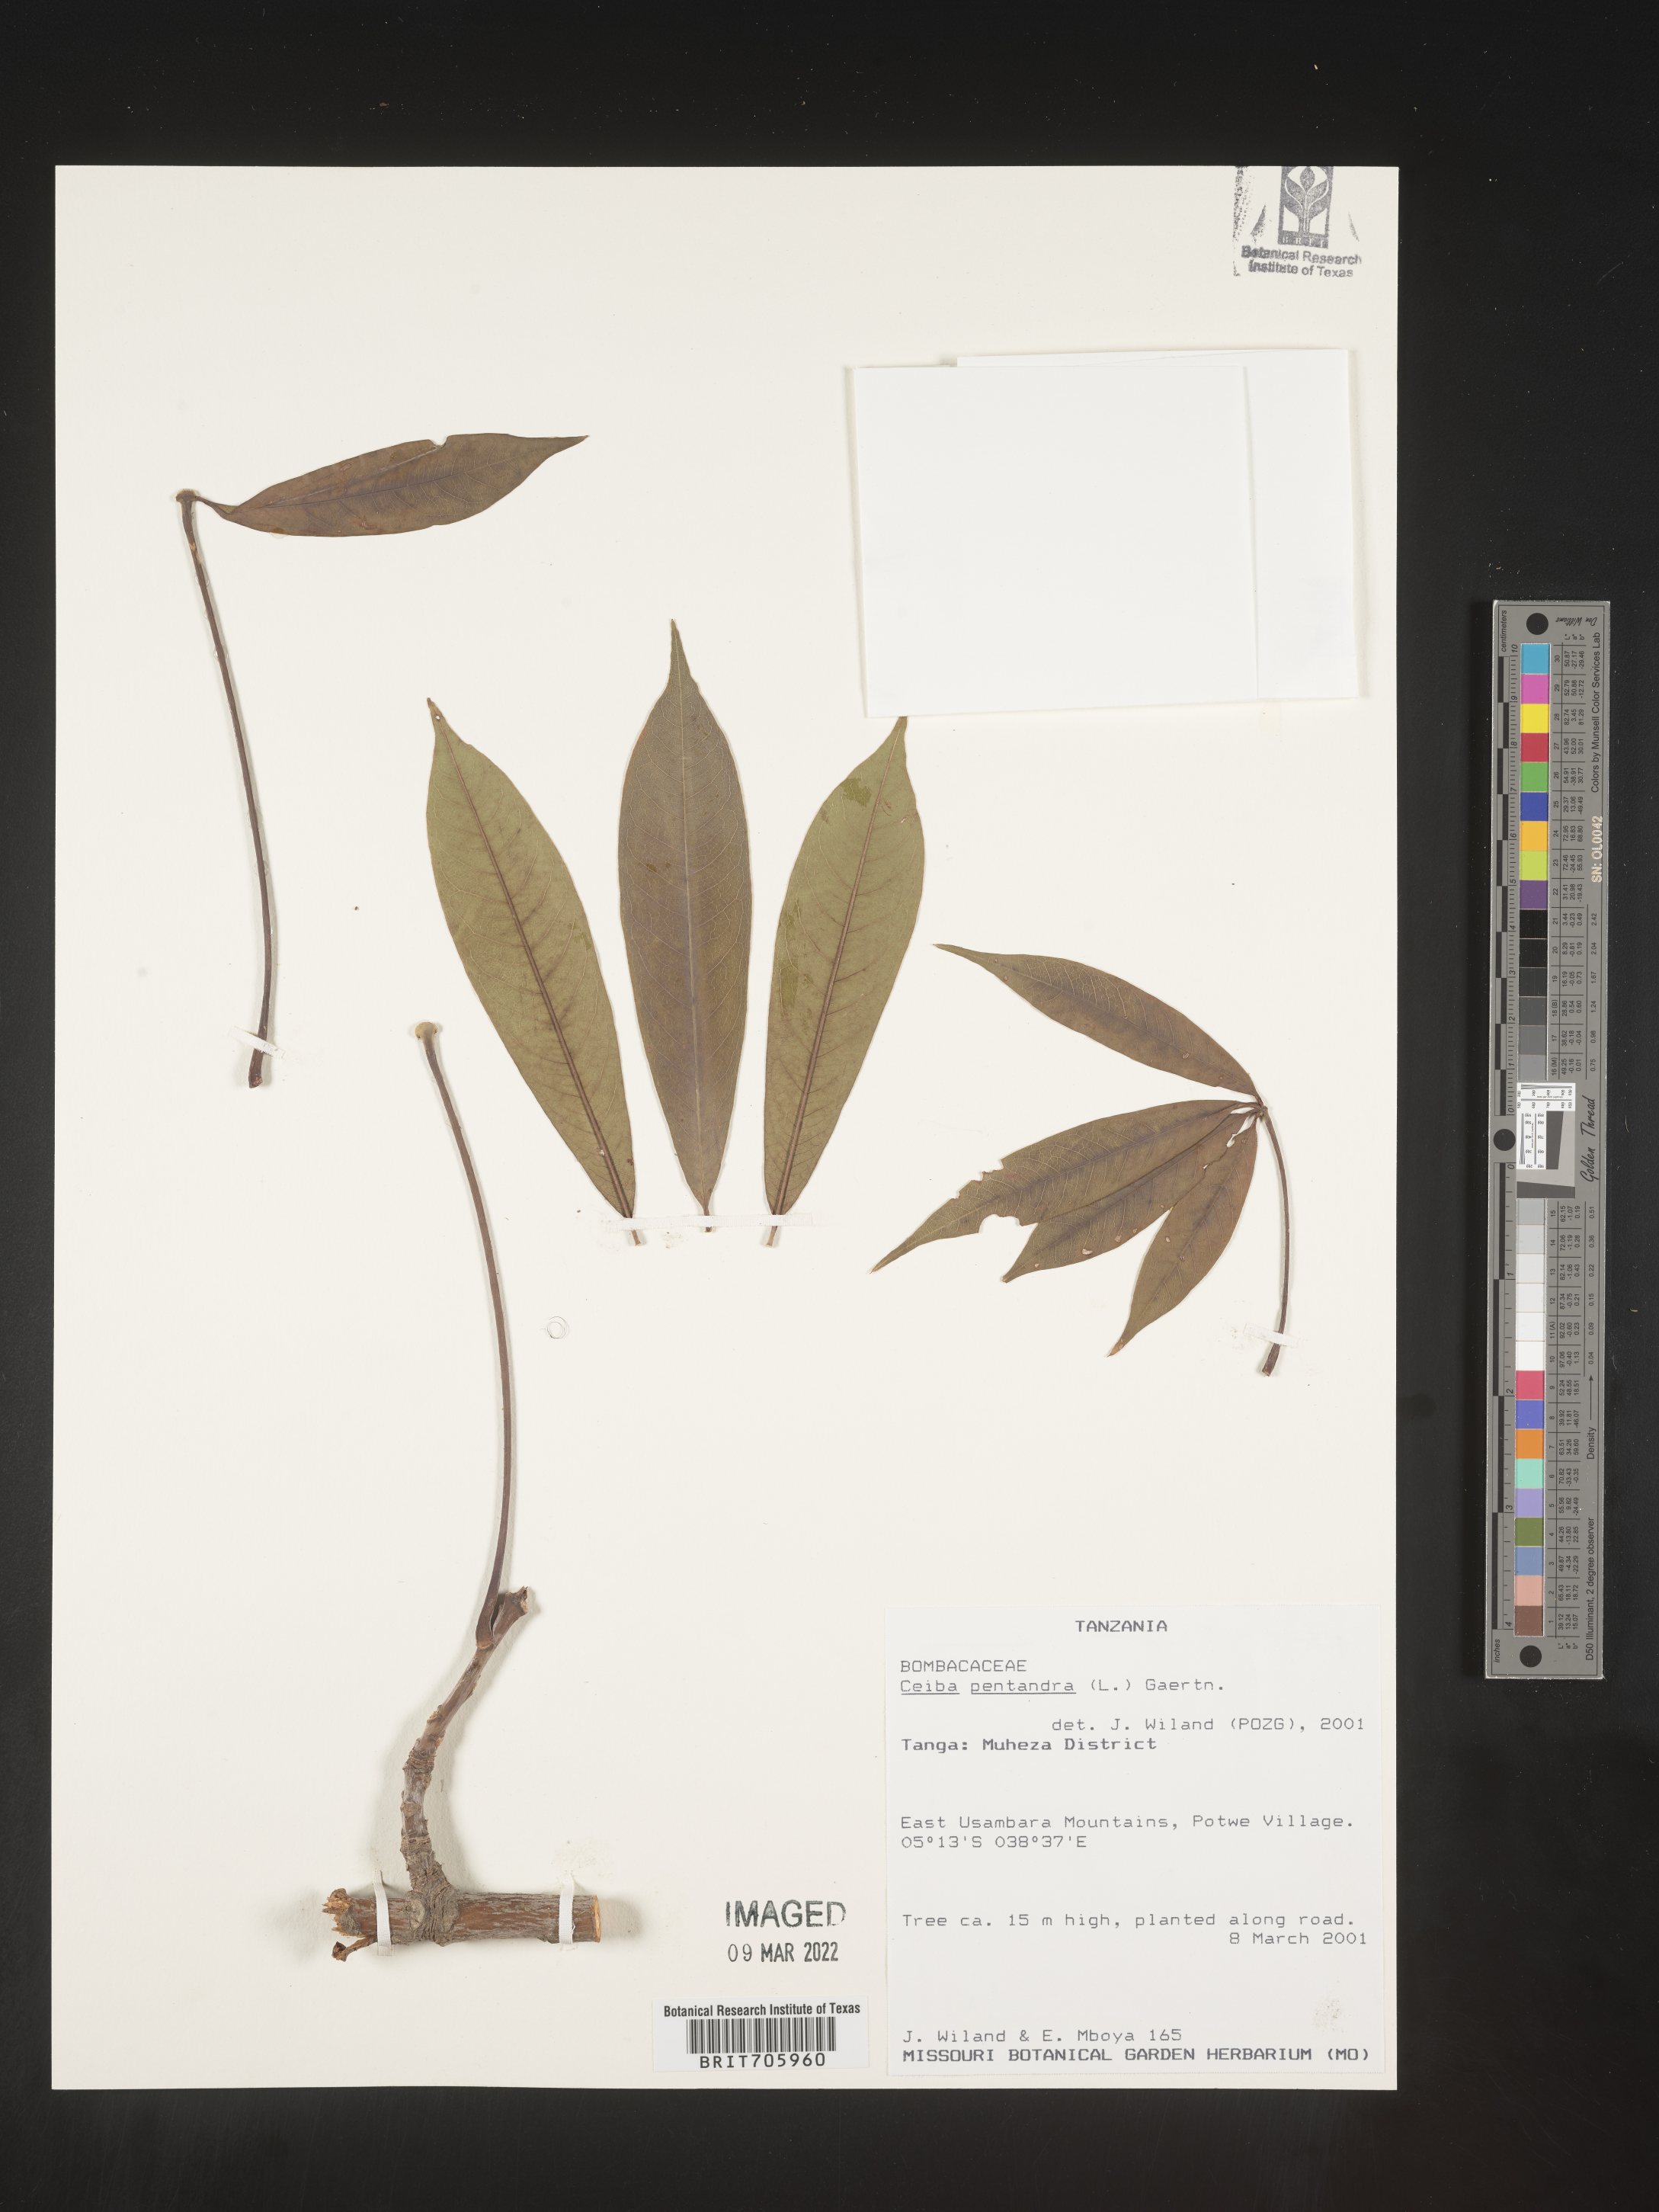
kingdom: Plantae
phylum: Tracheophyta
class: Magnoliopsida
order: Malvales
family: Malvaceae
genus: Ceiba
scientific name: Ceiba
